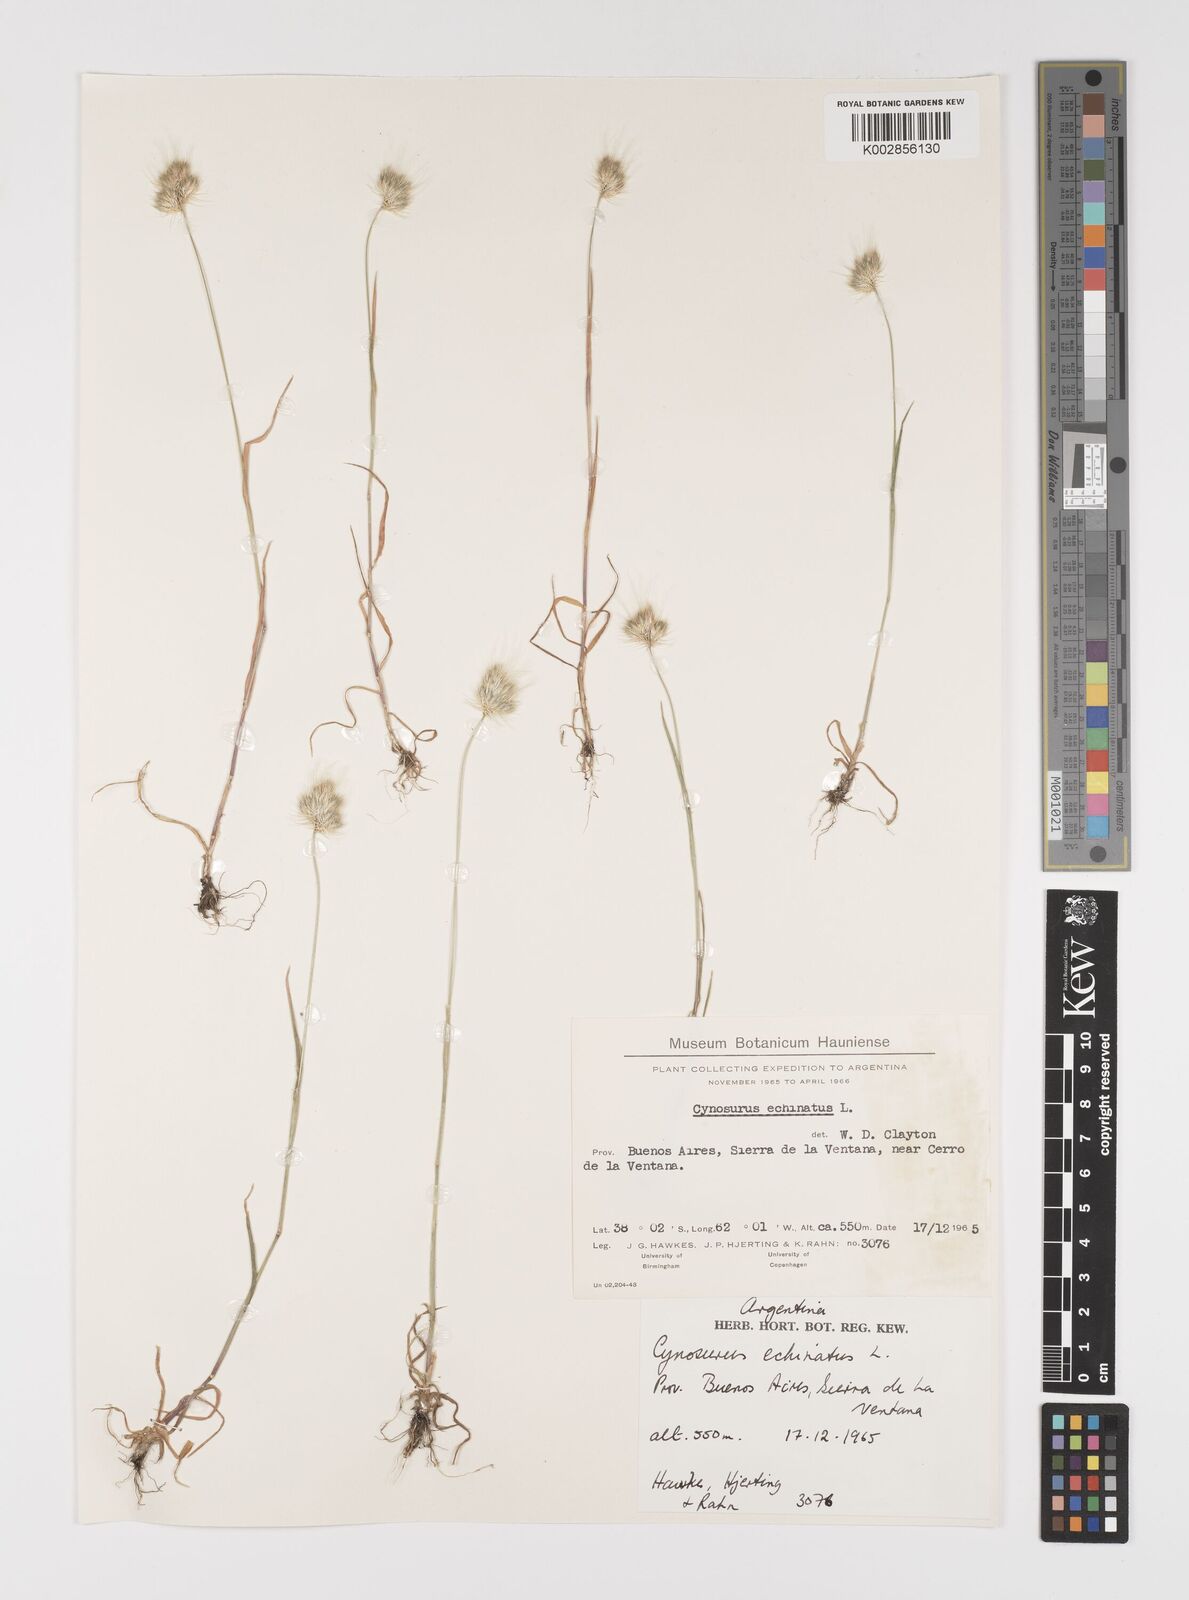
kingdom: Plantae
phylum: Tracheophyta
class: Liliopsida
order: Poales
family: Poaceae
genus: Cynosurus
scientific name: Cynosurus echinatus
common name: Rough dog's-tail
